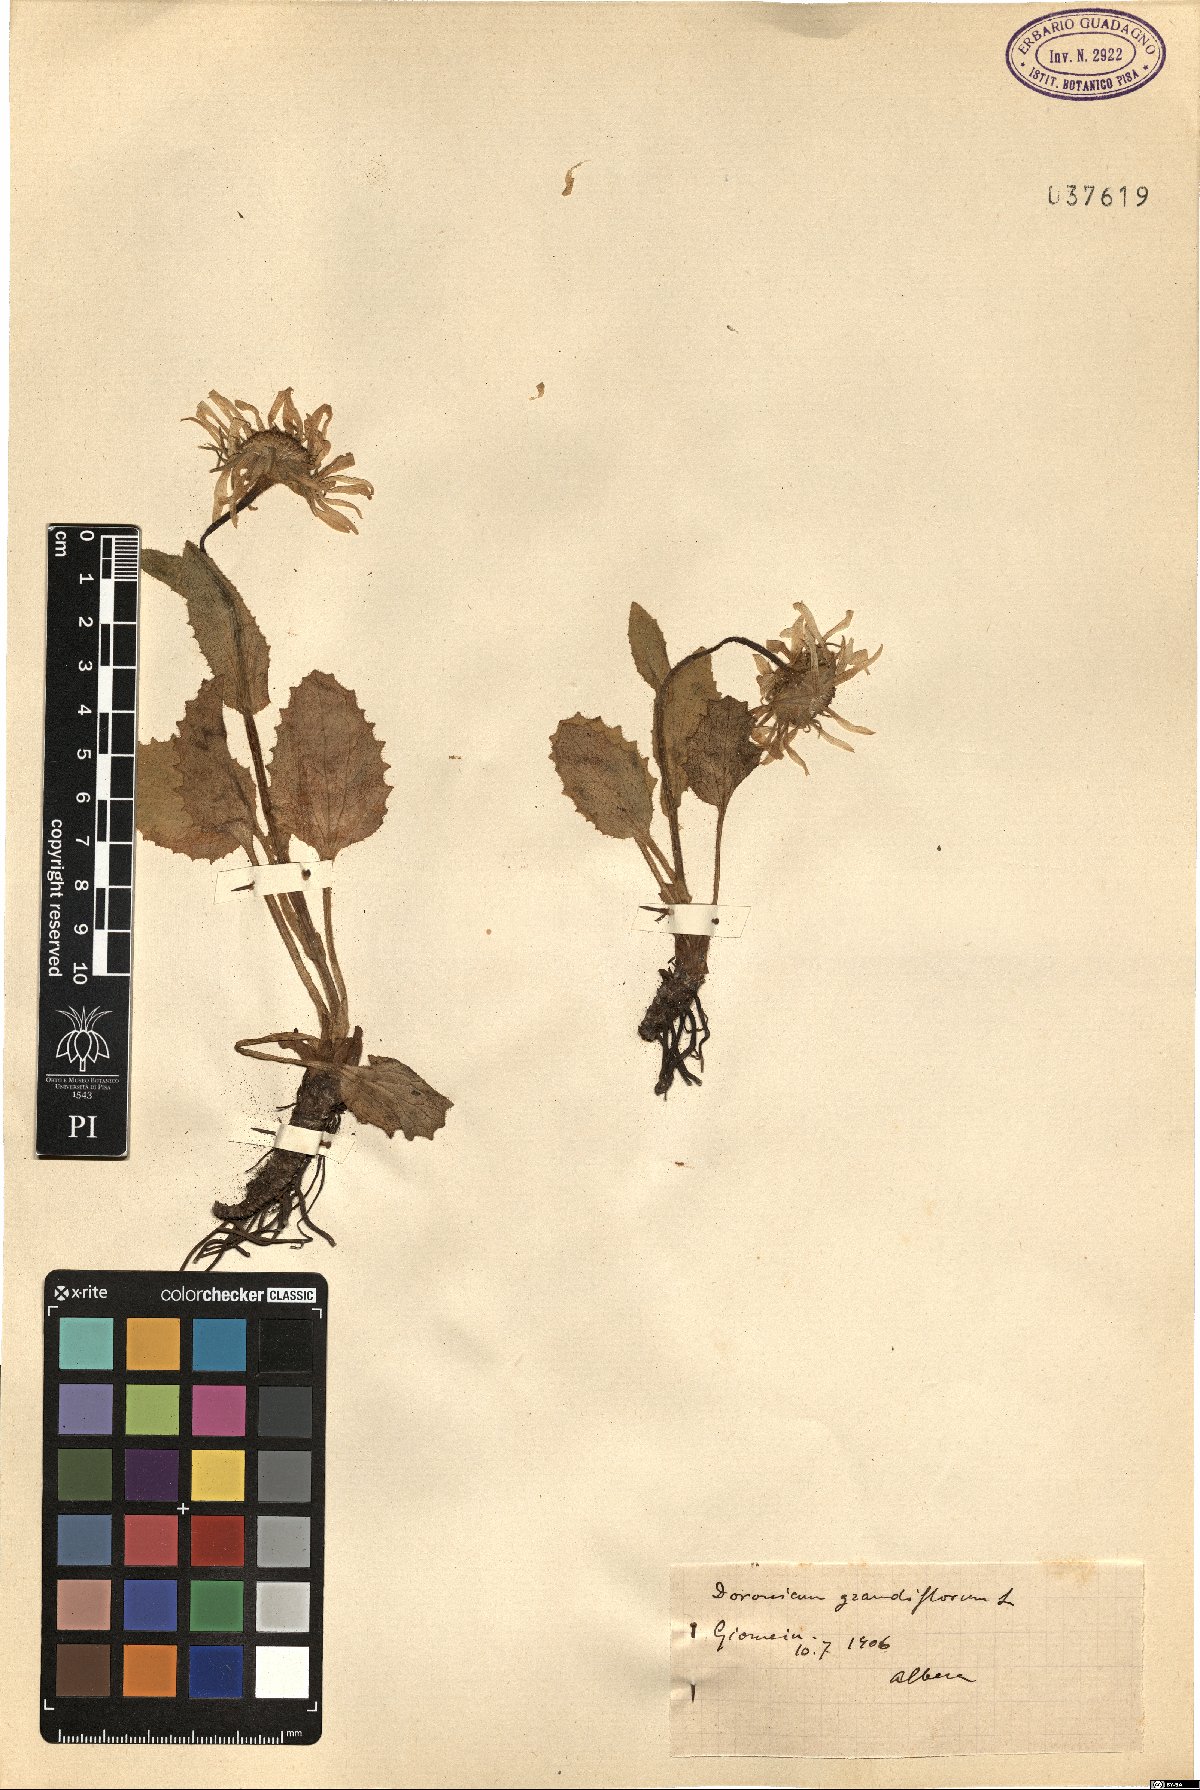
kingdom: Plantae
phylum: Tracheophyta
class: Magnoliopsida
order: Asterales
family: Asteraceae
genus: Doronicum
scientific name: Doronicum grandiflorum
